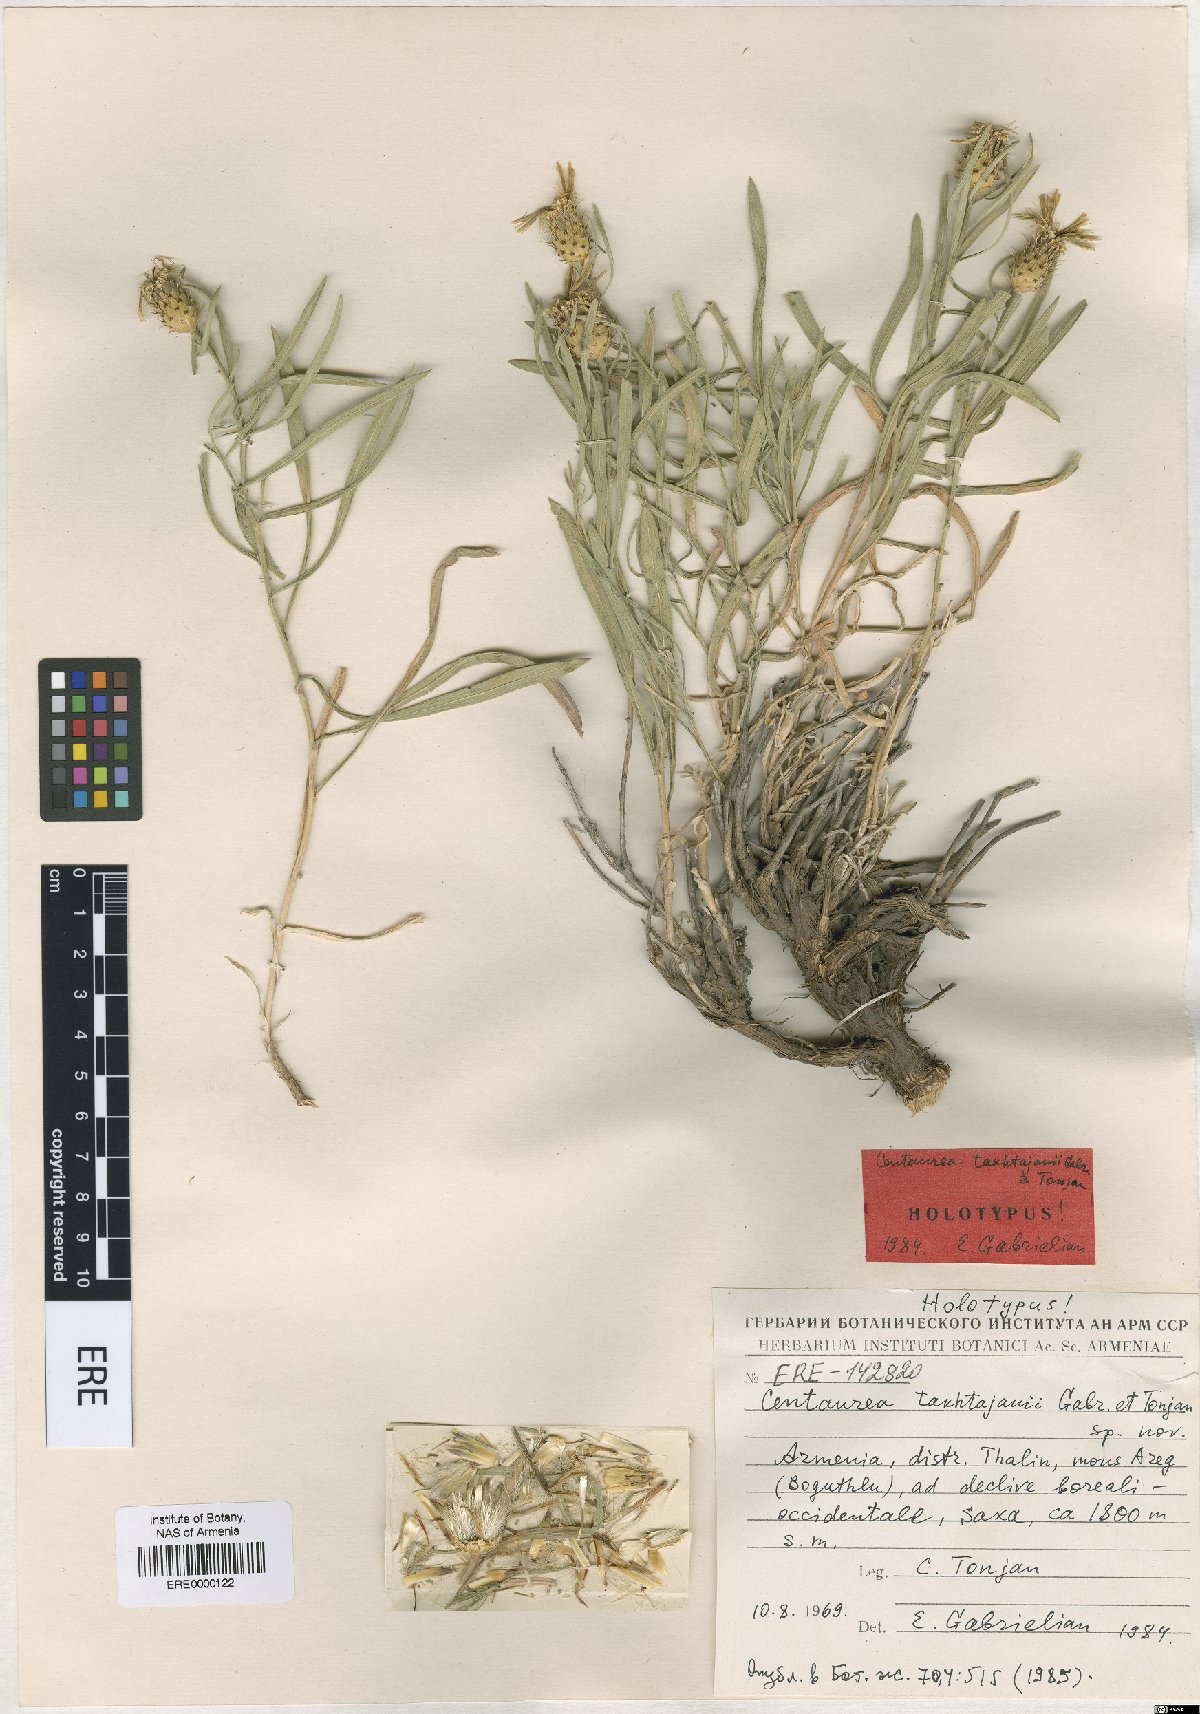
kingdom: Plantae
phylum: Tracheophyta
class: Magnoliopsida
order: Asterales
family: Asteraceae
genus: Centaurea
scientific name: Centaurea takhtajanii
